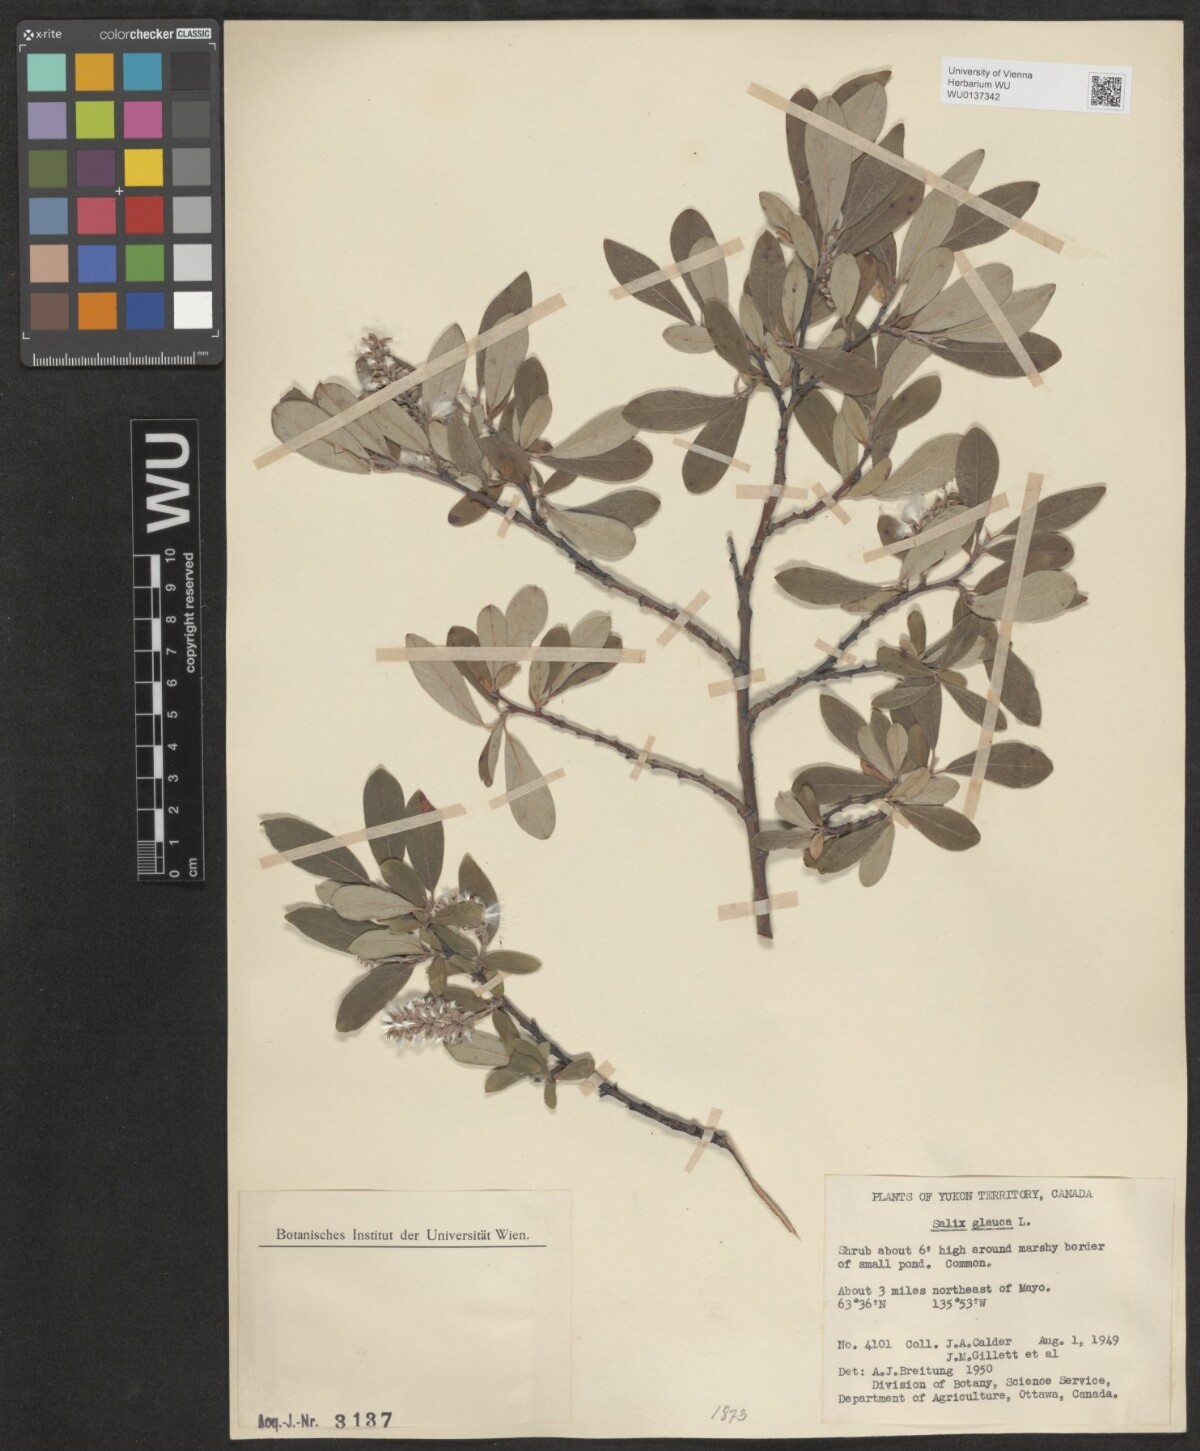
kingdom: Plantae
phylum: Tracheophyta
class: Magnoliopsida
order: Malpighiales
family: Salicaceae
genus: Salix
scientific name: Salix glauca
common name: Glaucous willow
